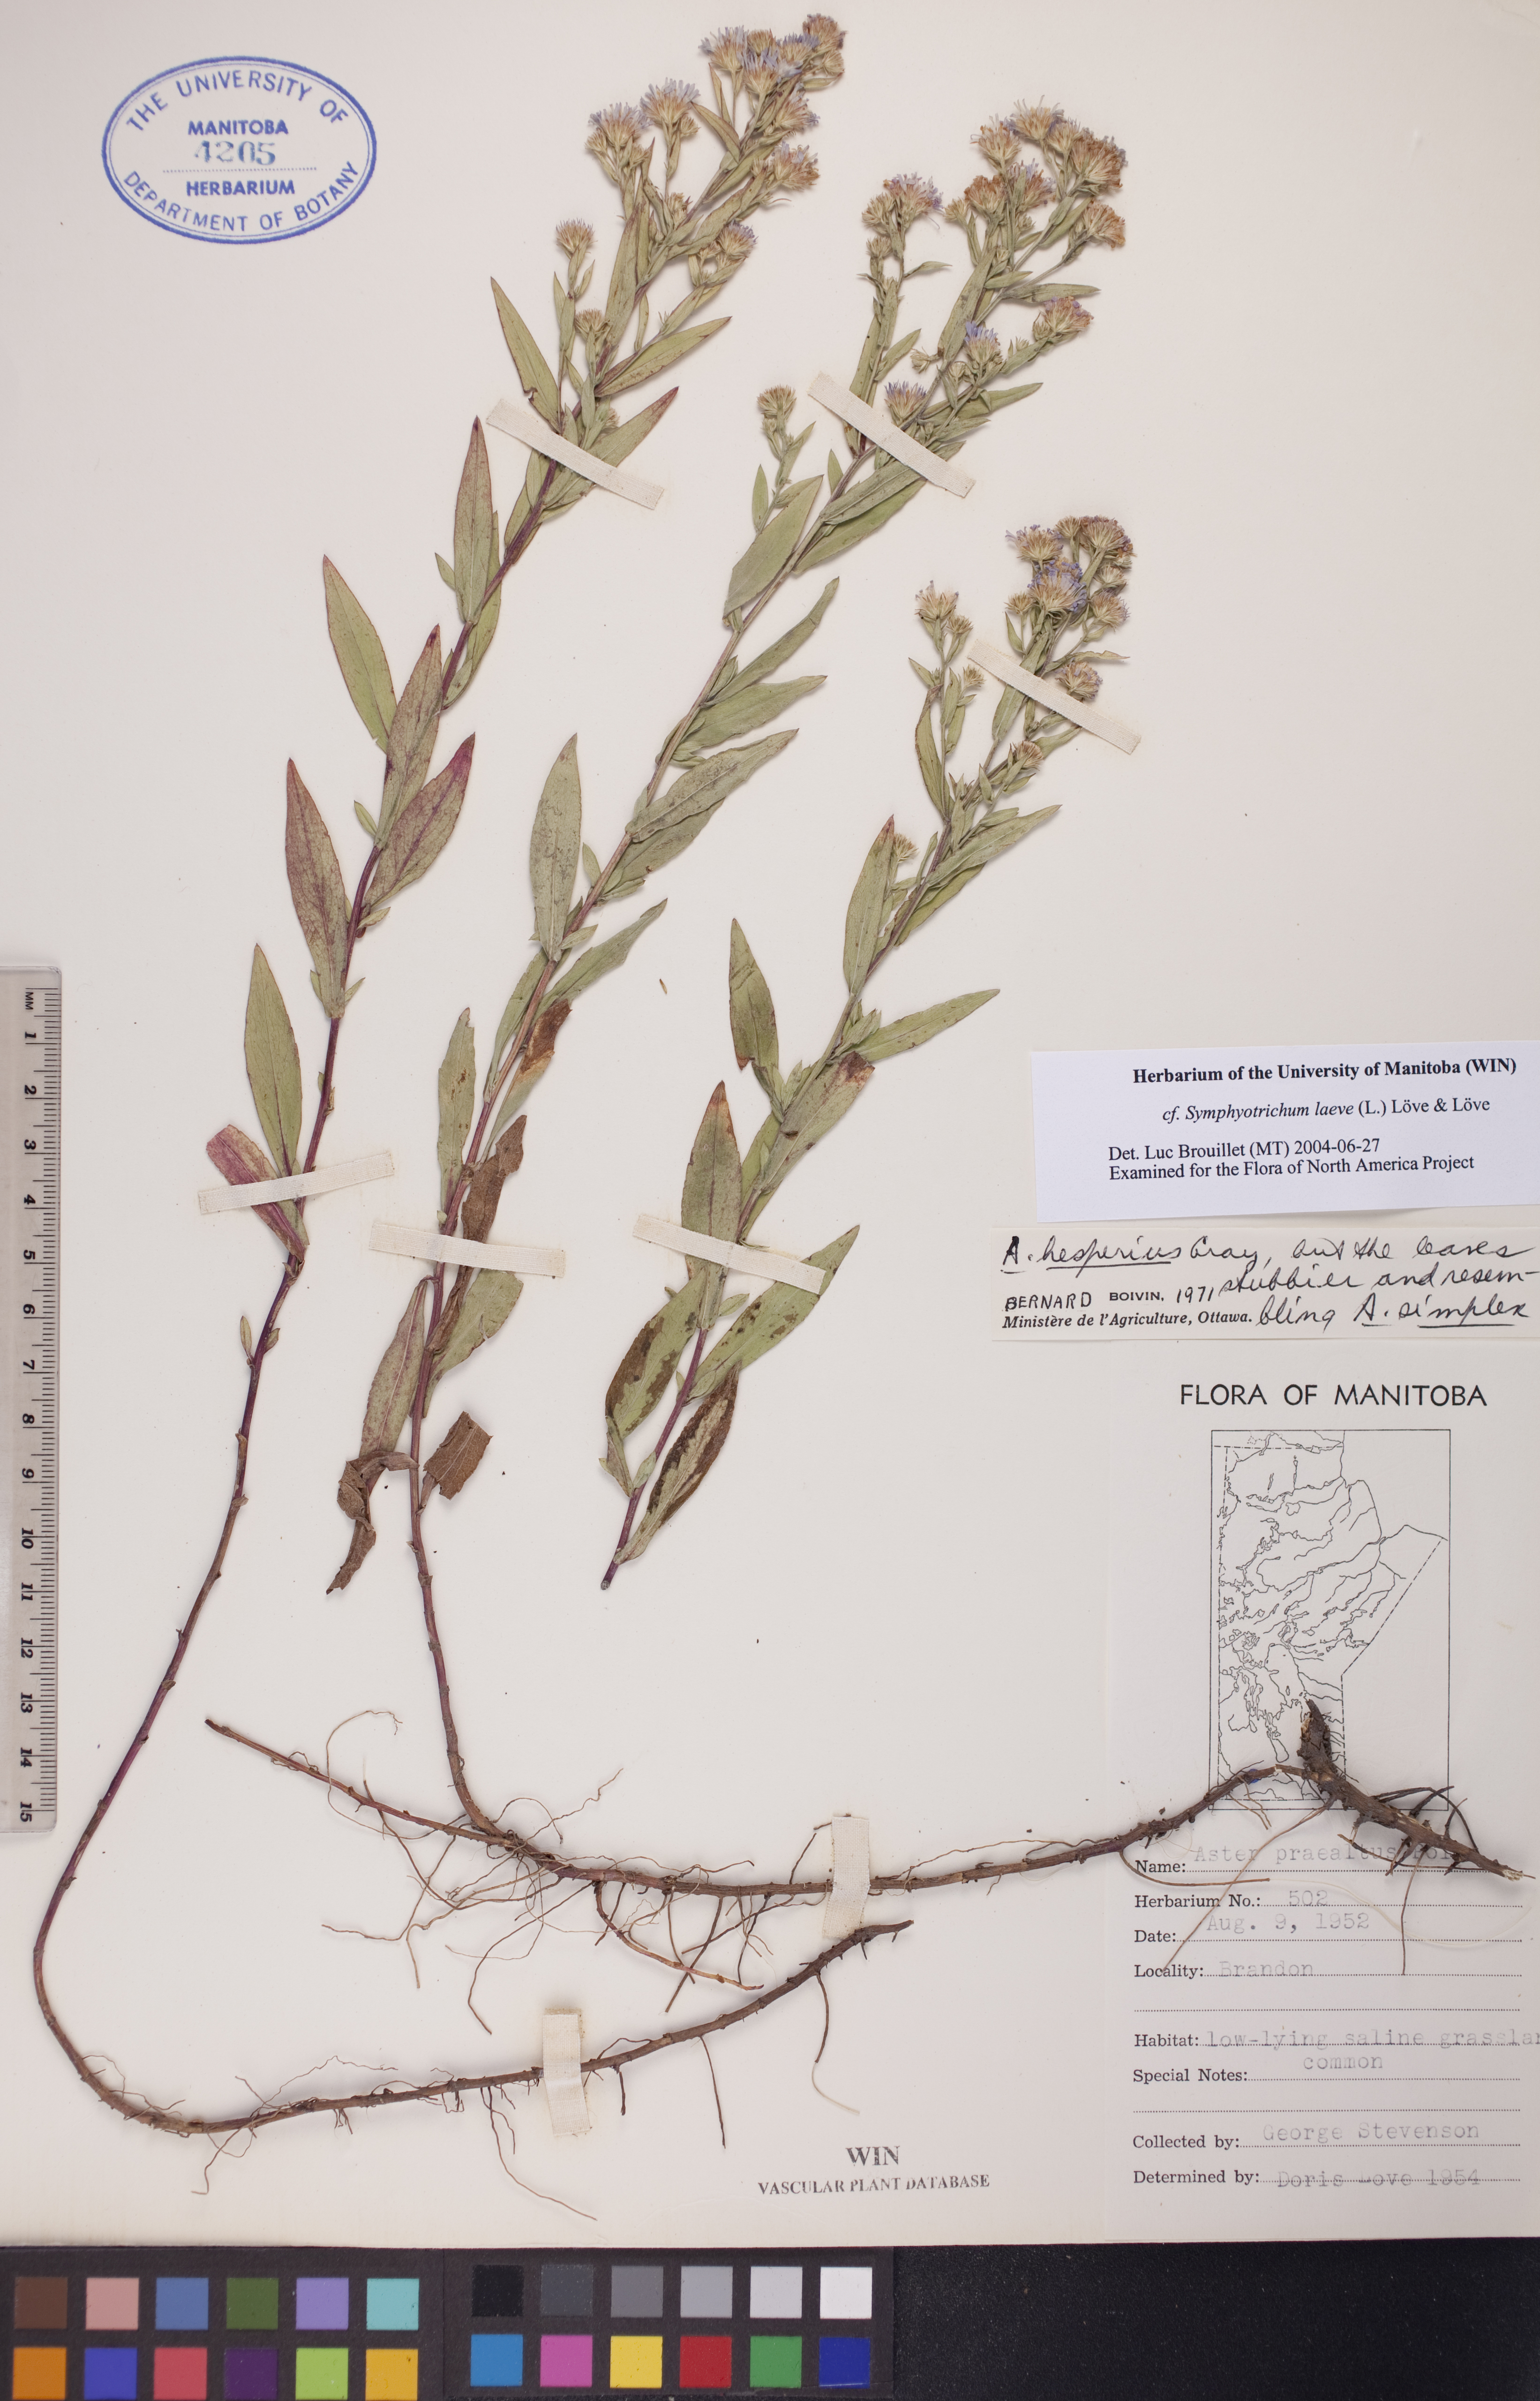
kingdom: Plantae
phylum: Tracheophyta
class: Magnoliopsida
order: Asterales
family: Asteraceae
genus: Symphyotrichum
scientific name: Symphyotrichum laeve
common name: Glaucous aster
